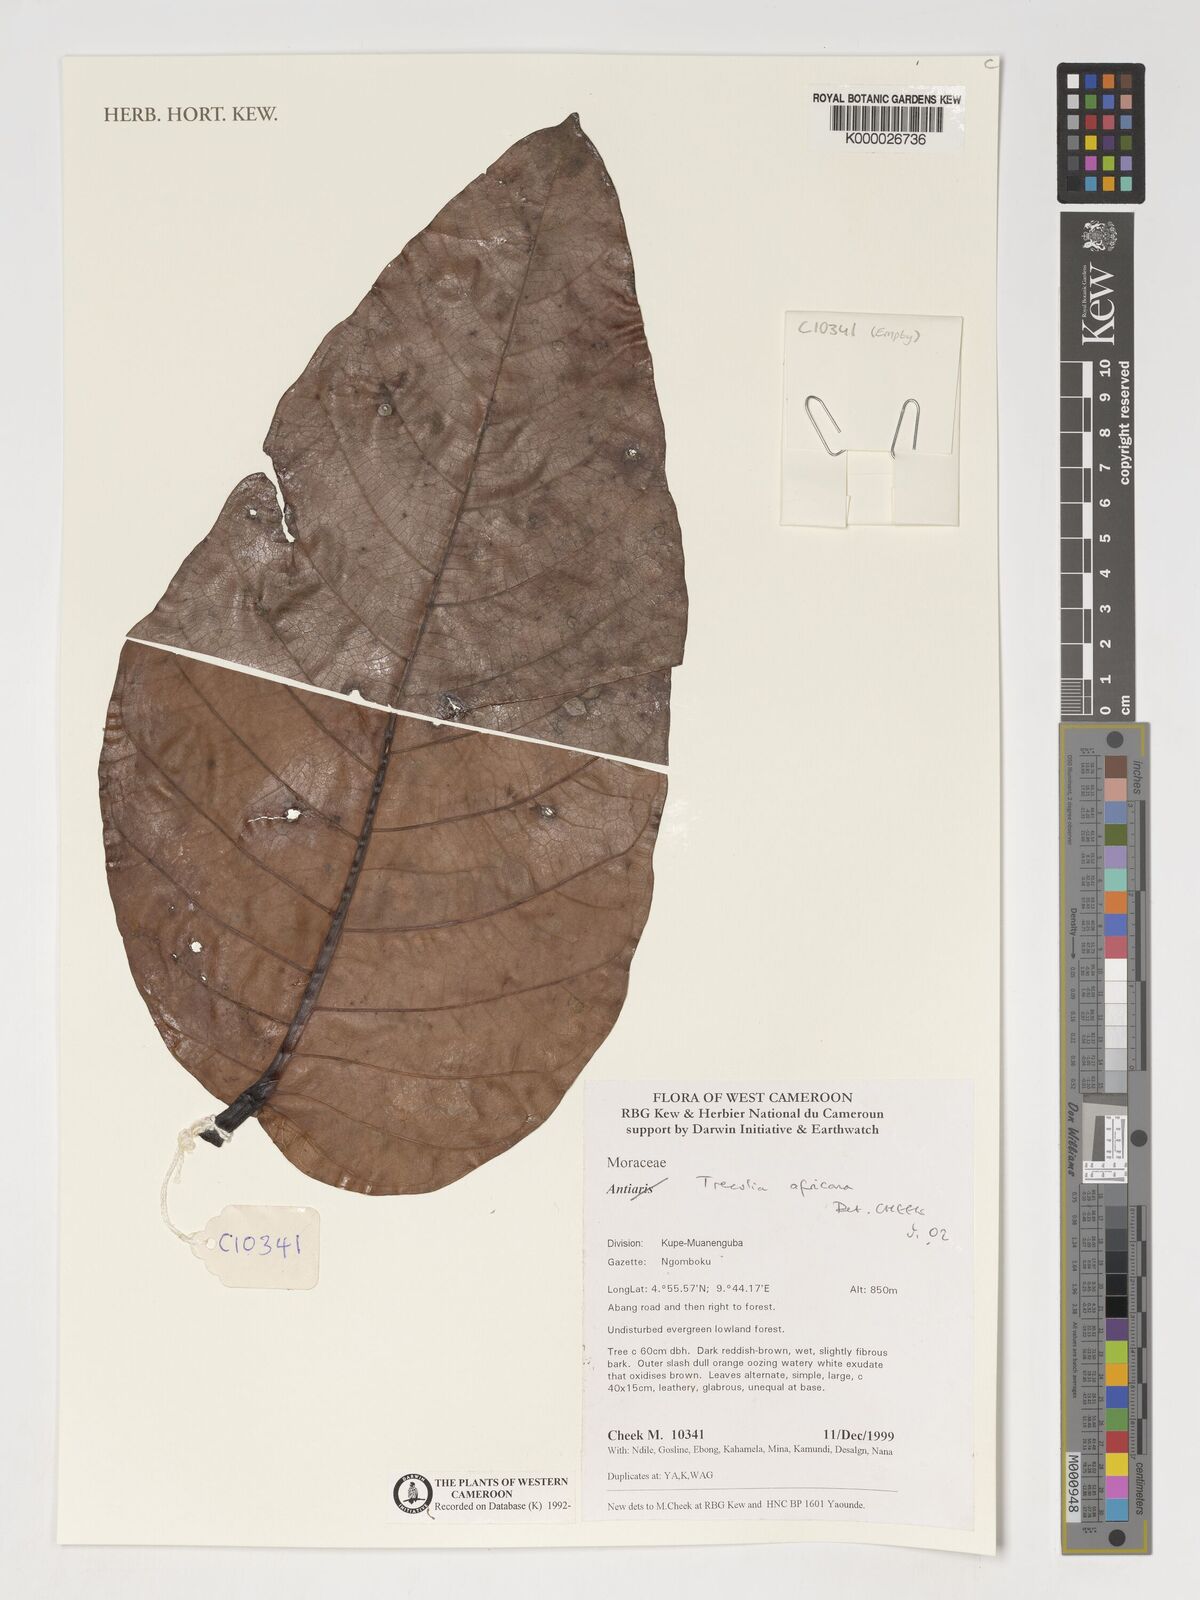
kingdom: Plantae
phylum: Tracheophyta
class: Magnoliopsida
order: Rosales
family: Moraceae
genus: Treculia
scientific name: Treculia
